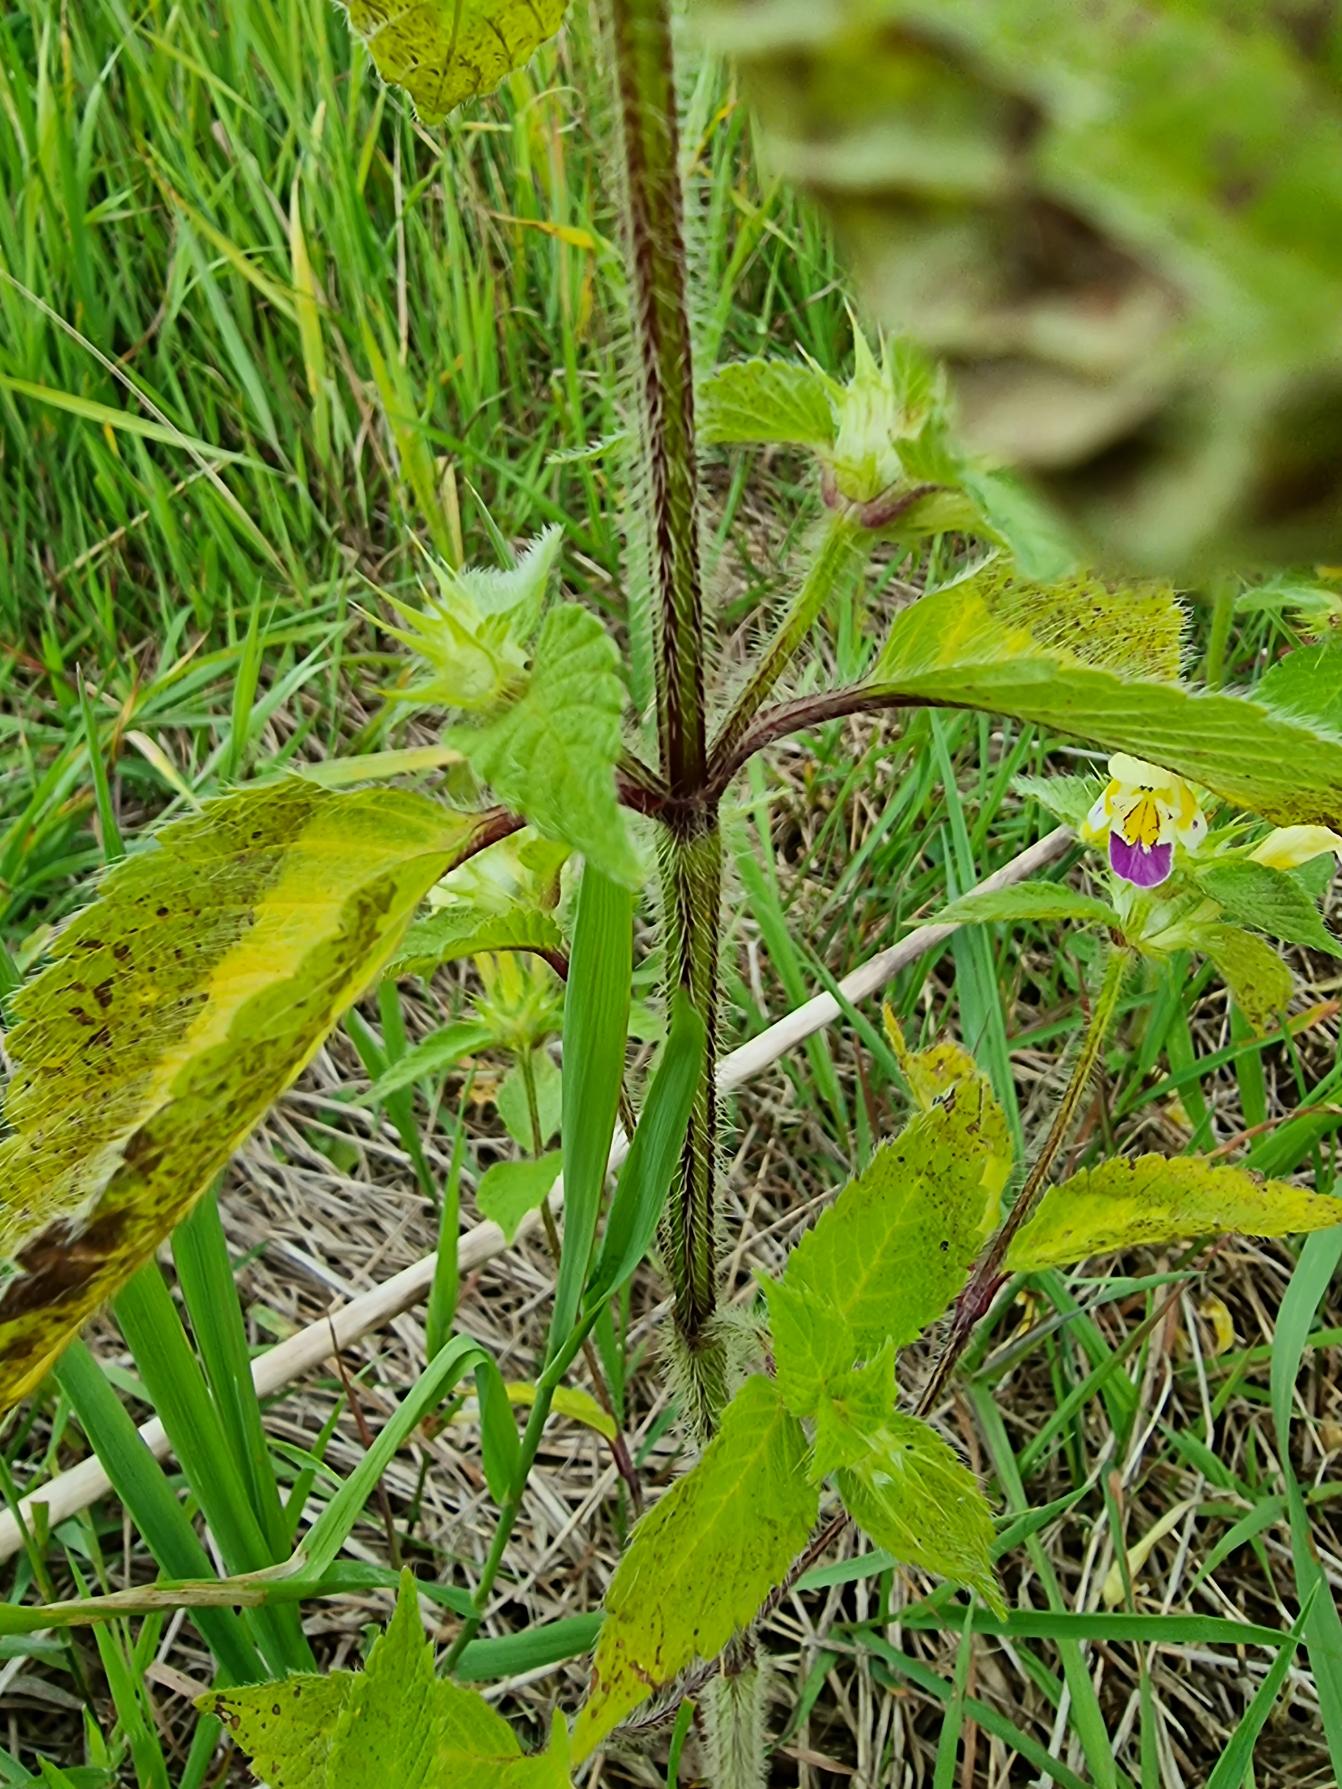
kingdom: Plantae
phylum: Tracheophyta
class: Magnoliopsida
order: Lamiales
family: Lamiaceae
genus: Galeopsis
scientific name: Galeopsis speciosa
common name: Hamp-hanekro
